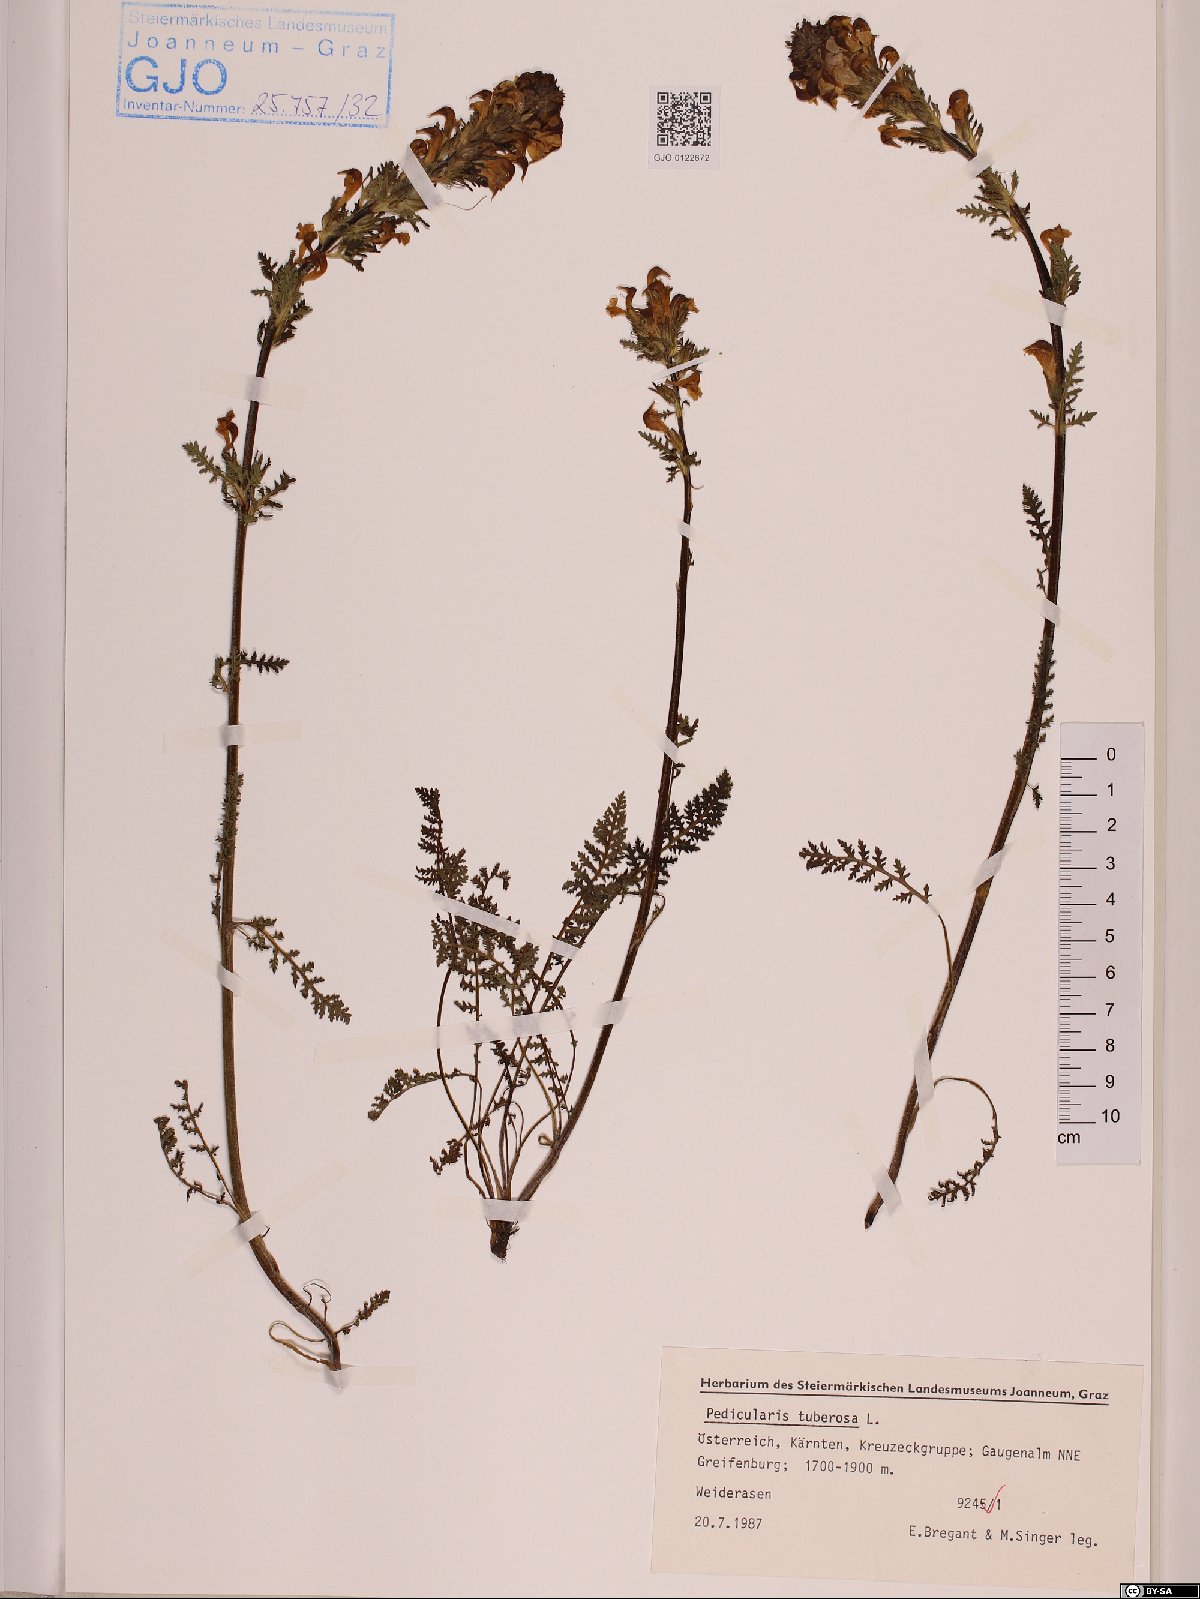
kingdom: Plantae
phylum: Tracheophyta
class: Magnoliopsida
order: Lamiales
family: Orobanchaceae
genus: Pedicularis
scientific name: Pedicularis tuberosa
